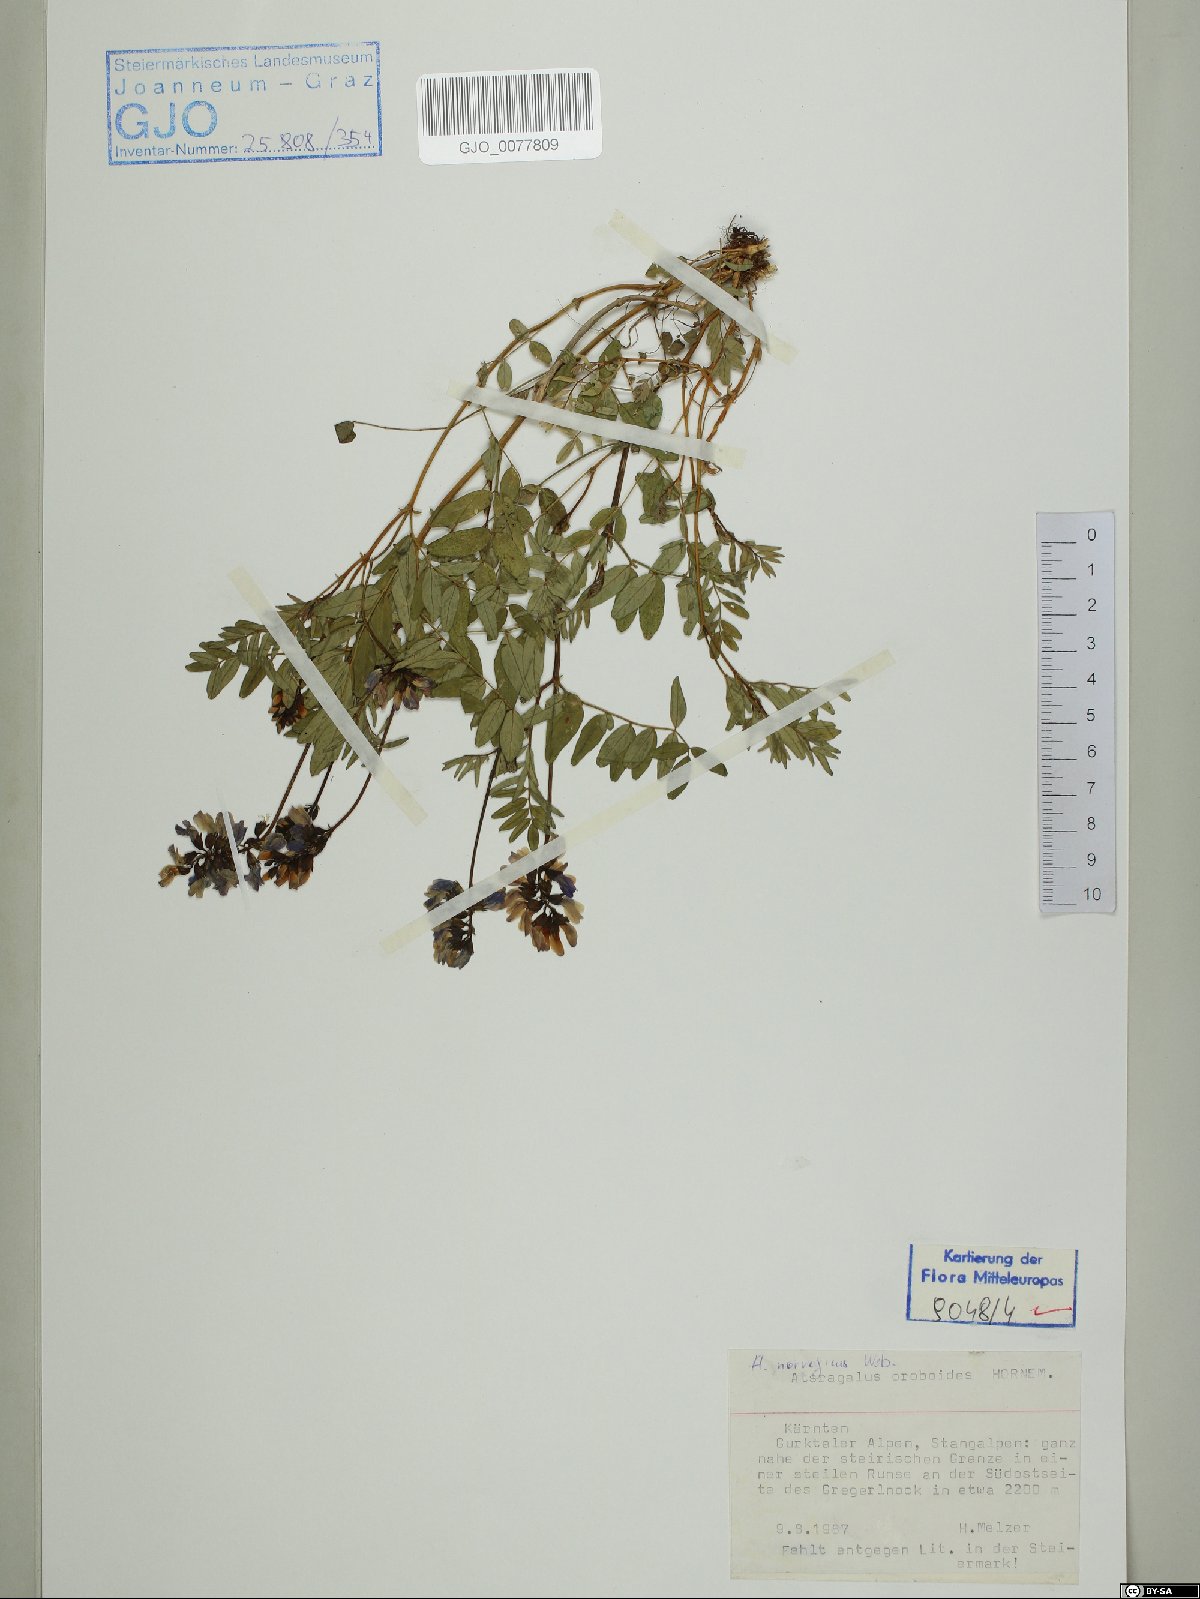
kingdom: Plantae
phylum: Tracheophyta
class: Magnoliopsida
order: Fabales
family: Fabaceae
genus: Astragalus
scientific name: Astragalus norvegicus
